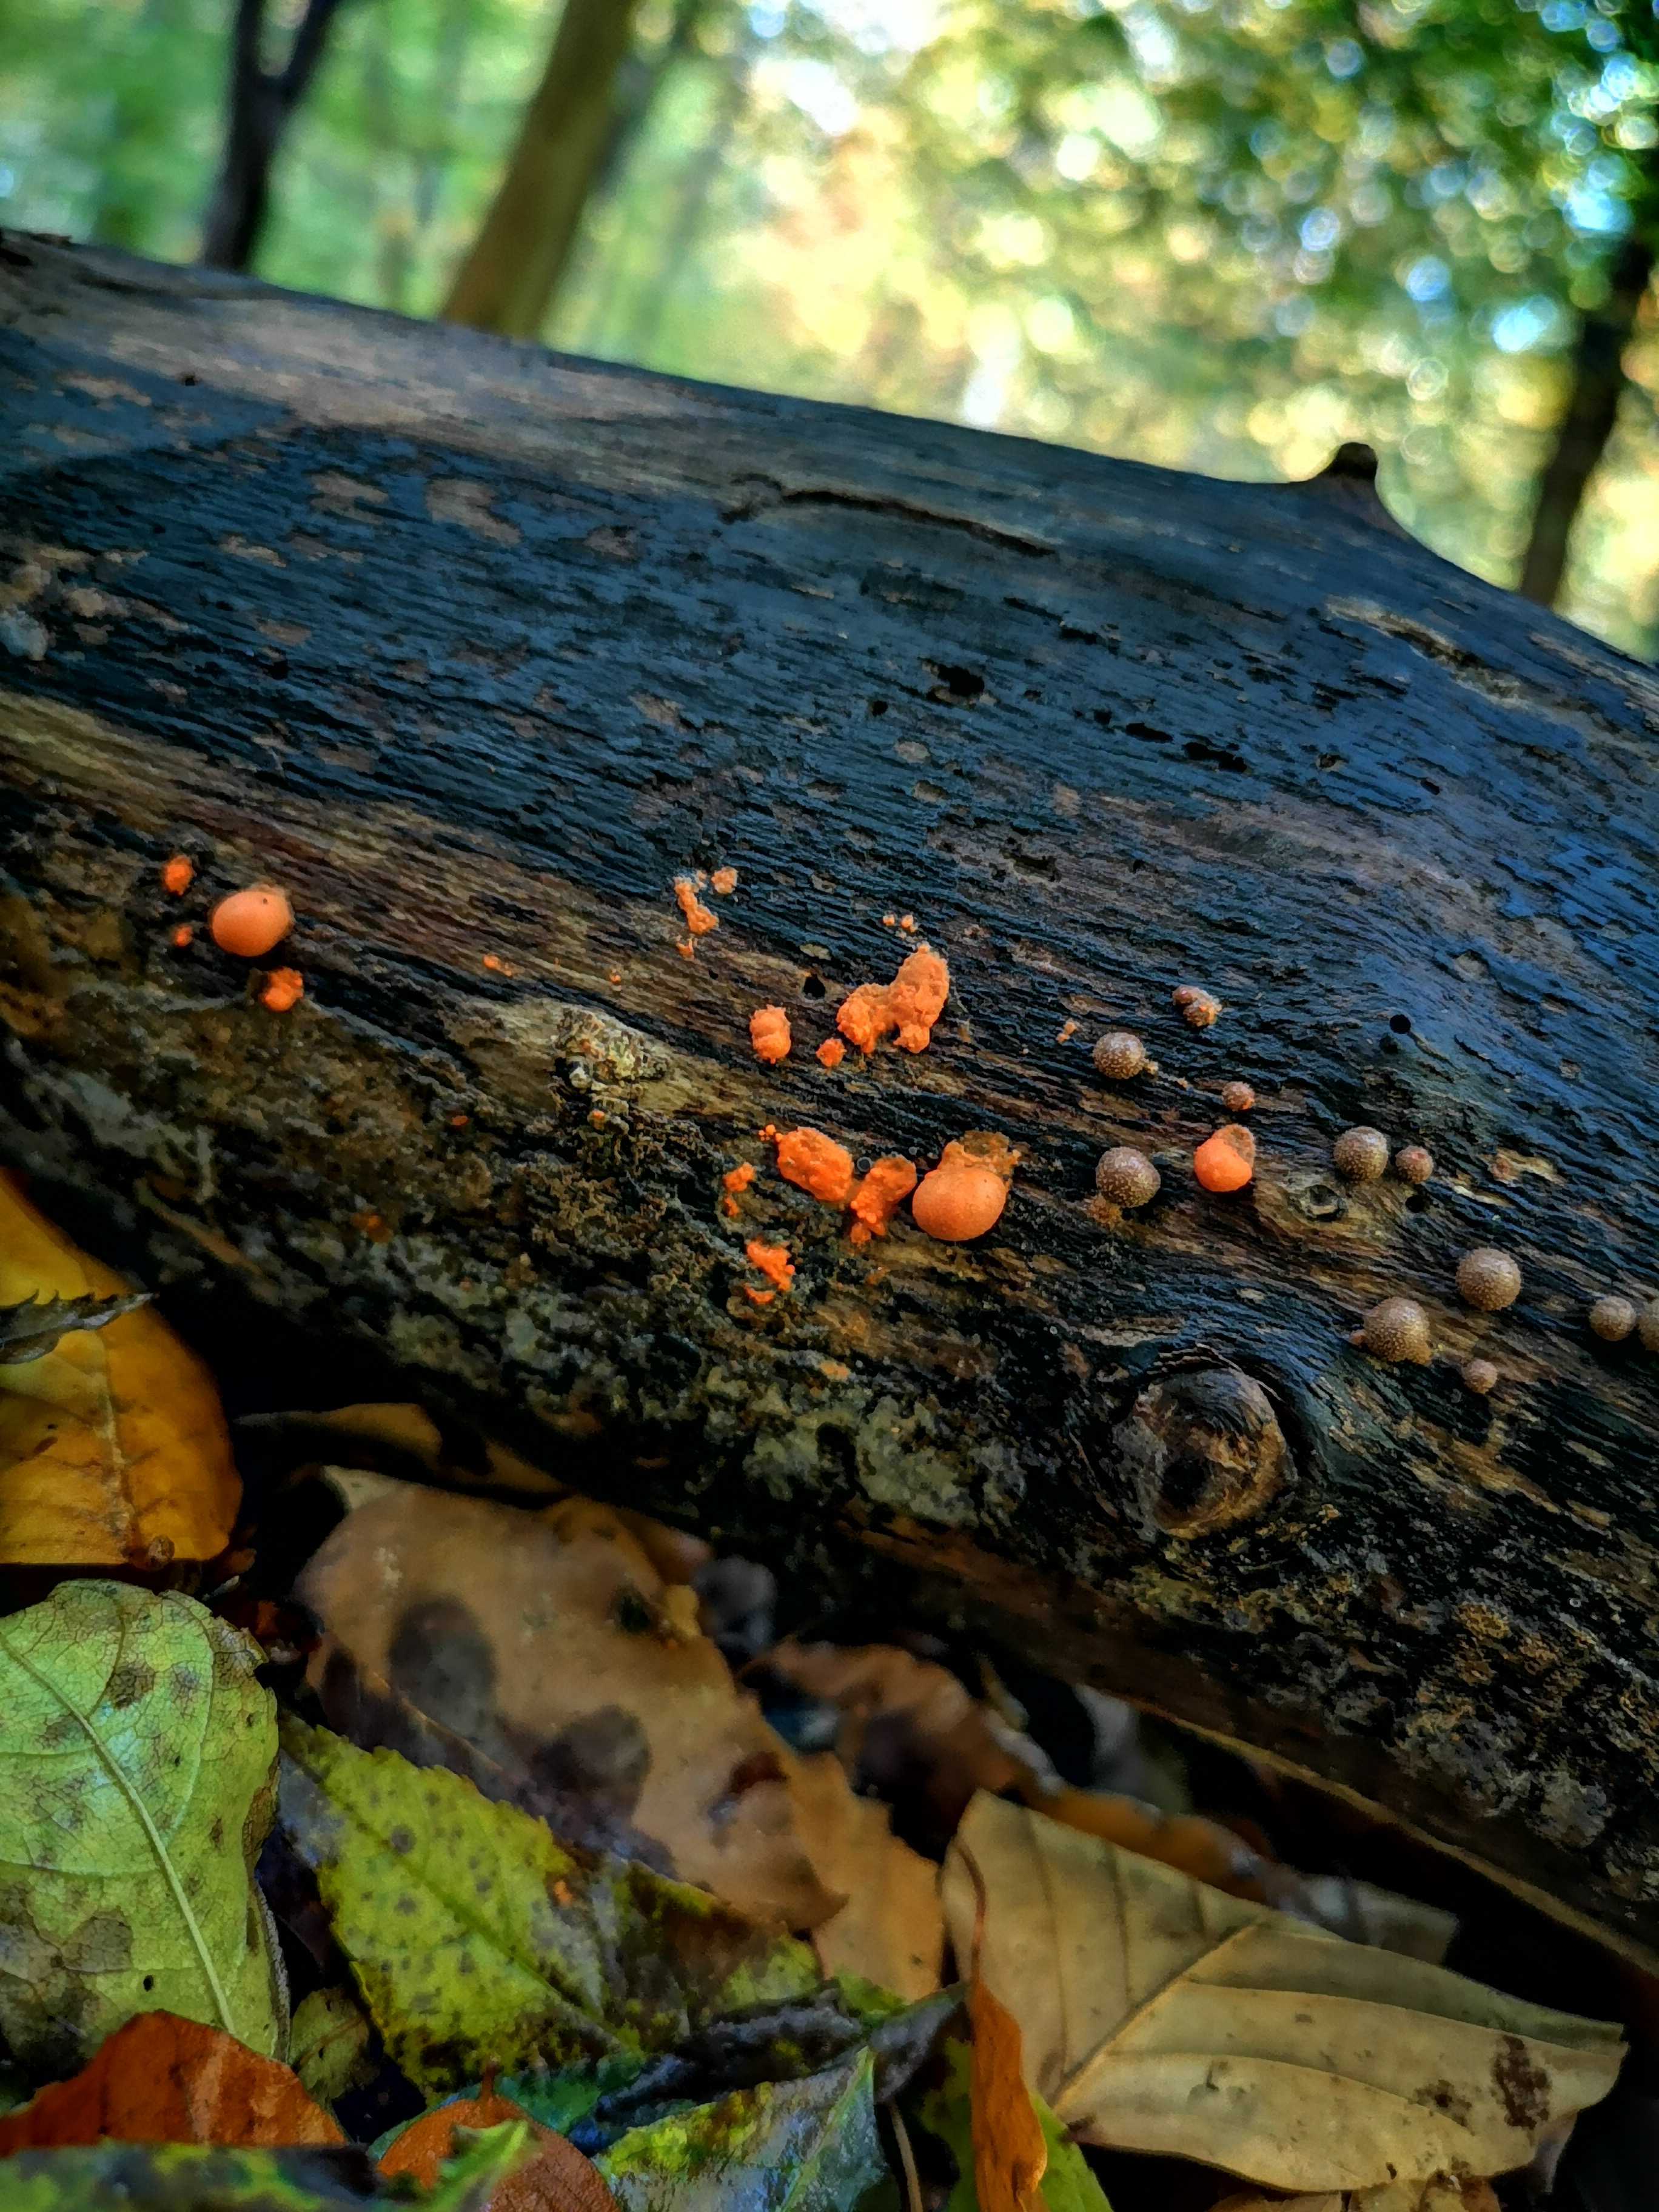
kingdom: Protozoa
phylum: Mycetozoa
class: Myxomycetes
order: Cribrariales
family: Tubiferaceae
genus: Lycogala
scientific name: Lycogala epidendrum
